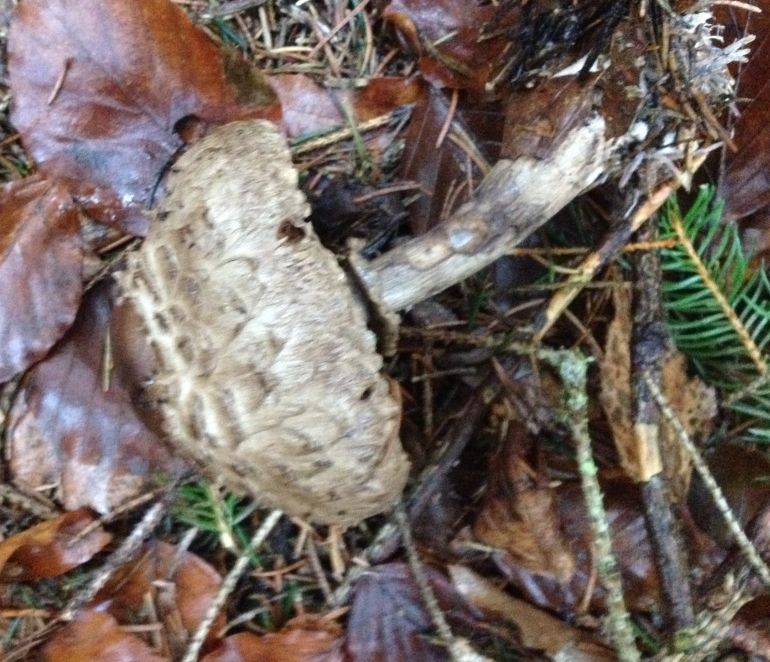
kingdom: Fungi
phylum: Basidiomycota
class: Agaricomycetes
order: Agaricales
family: Agaricaceae
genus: Chlorophyllum
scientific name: Chlorophyllum olivieri
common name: almindelig rabarberhat
